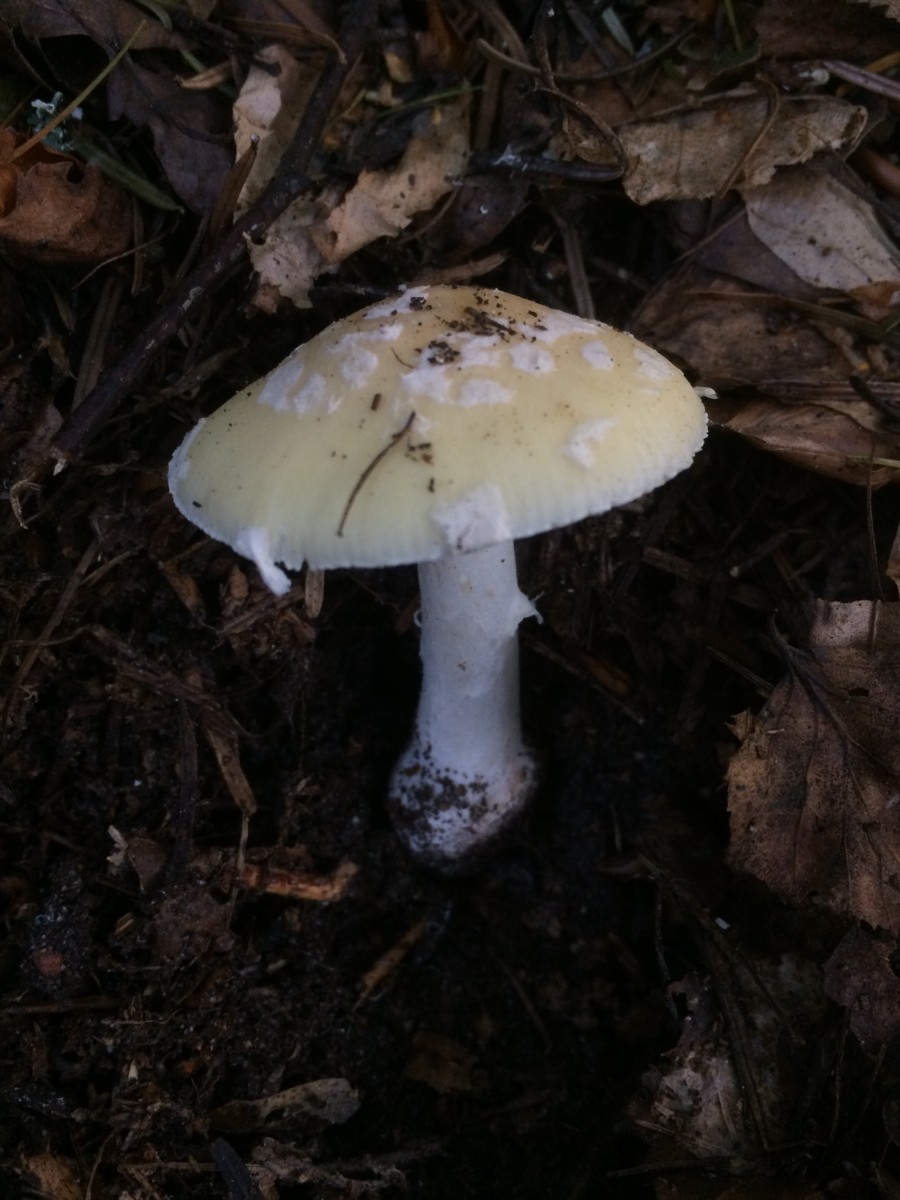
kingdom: Fungi
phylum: Basidiomycota
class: Agaricomycetes
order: Agaricales
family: Amanitaceae
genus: Amanita
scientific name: Amanita gemmata
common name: okkergul fluesvamp
